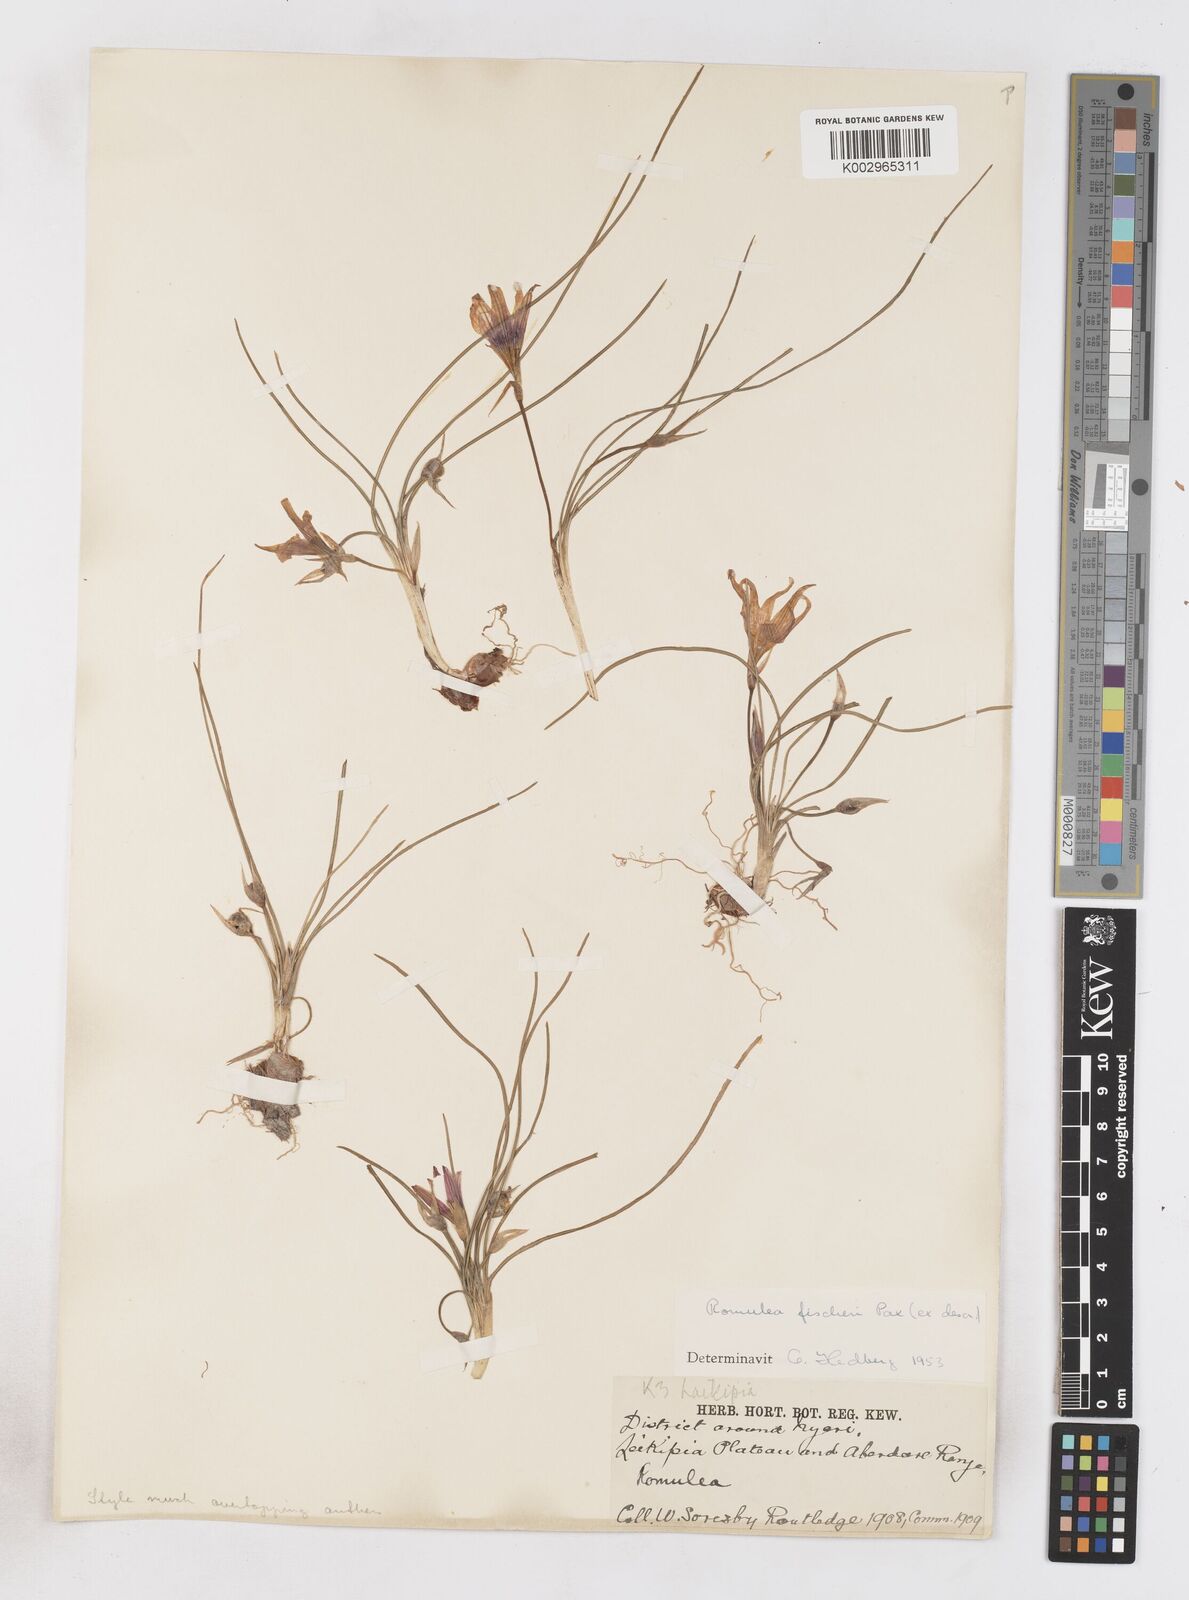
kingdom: Plantae
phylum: Tracheophyta
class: Liliopsida
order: Asparagales
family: Iridaceae
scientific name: Iridaceae
